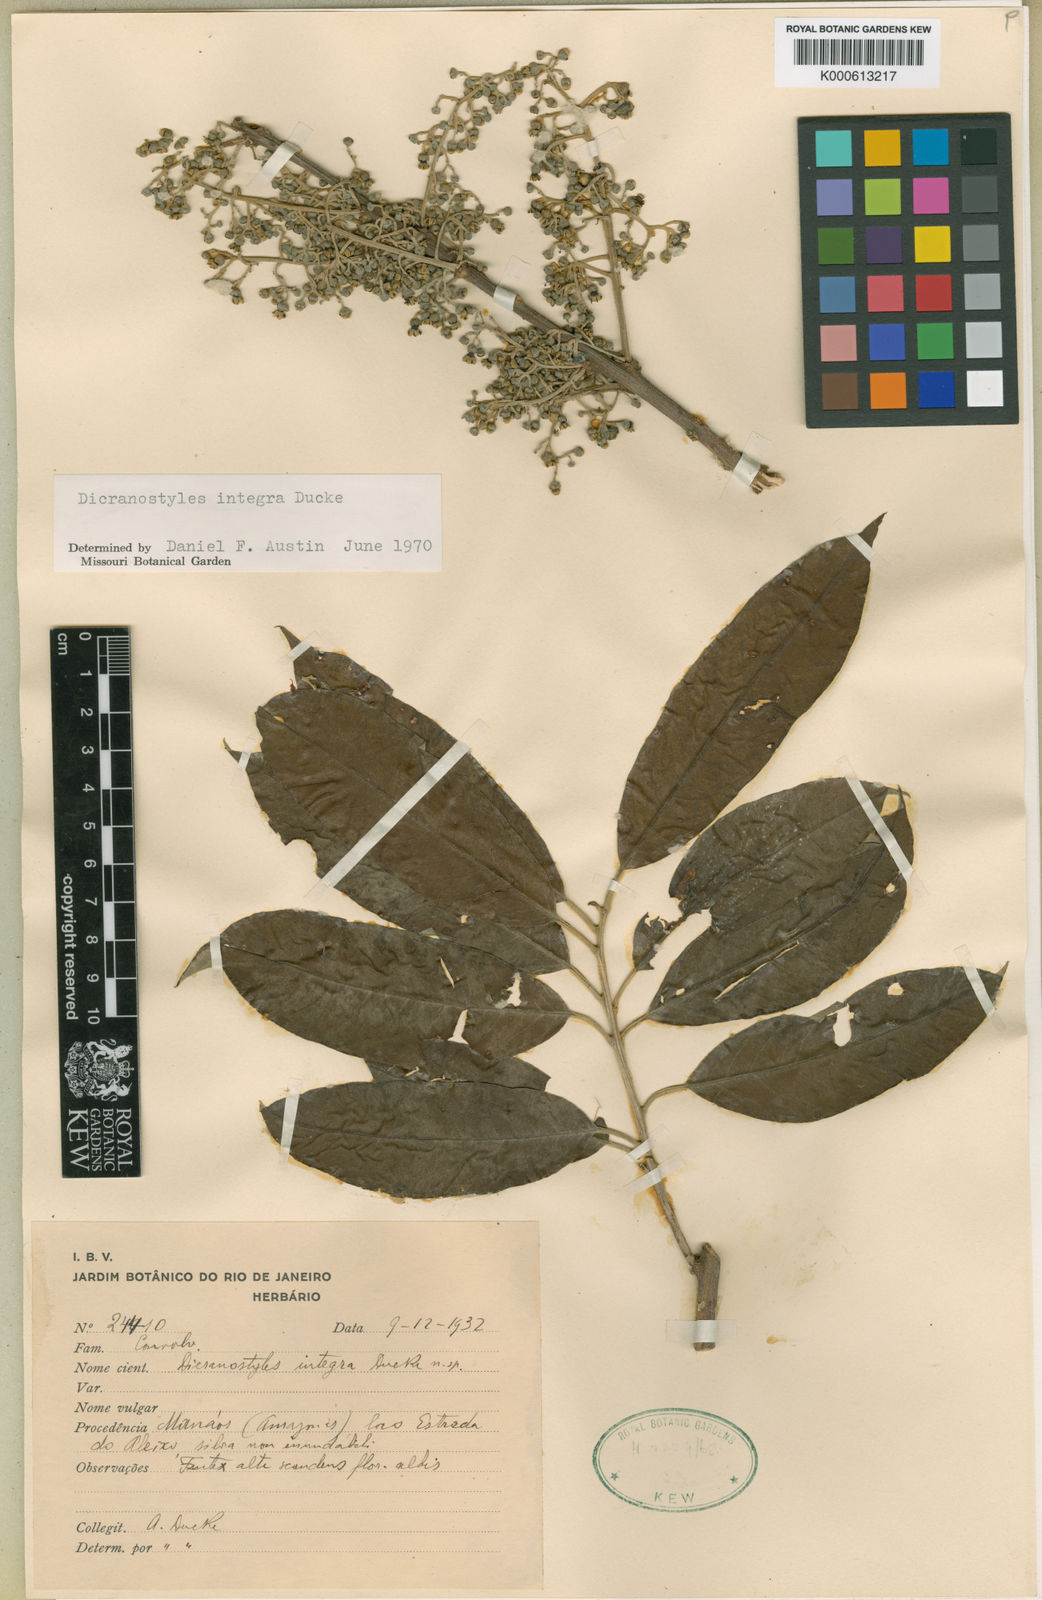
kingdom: Plantae
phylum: Tracheophyta
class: Magnoliopsida
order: Solanales
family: Convolvulaceae
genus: Dicranostyles
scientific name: Dicranostyles integra
